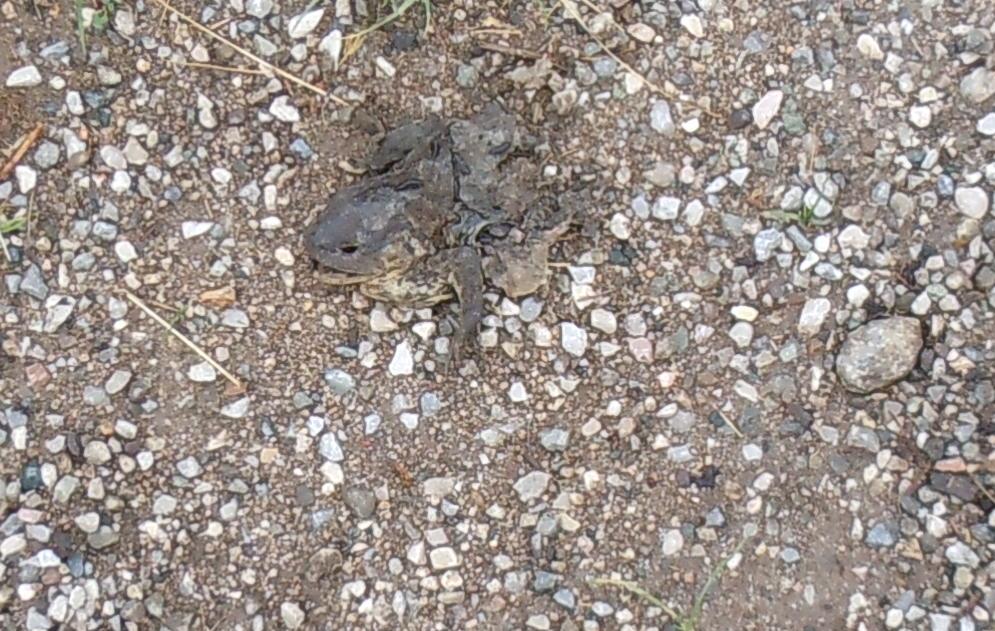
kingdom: Animalia
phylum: Chordata
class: Amphibia
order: Anura
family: Bufonidae
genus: Bufo
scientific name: Bufo bufo
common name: Common toad
